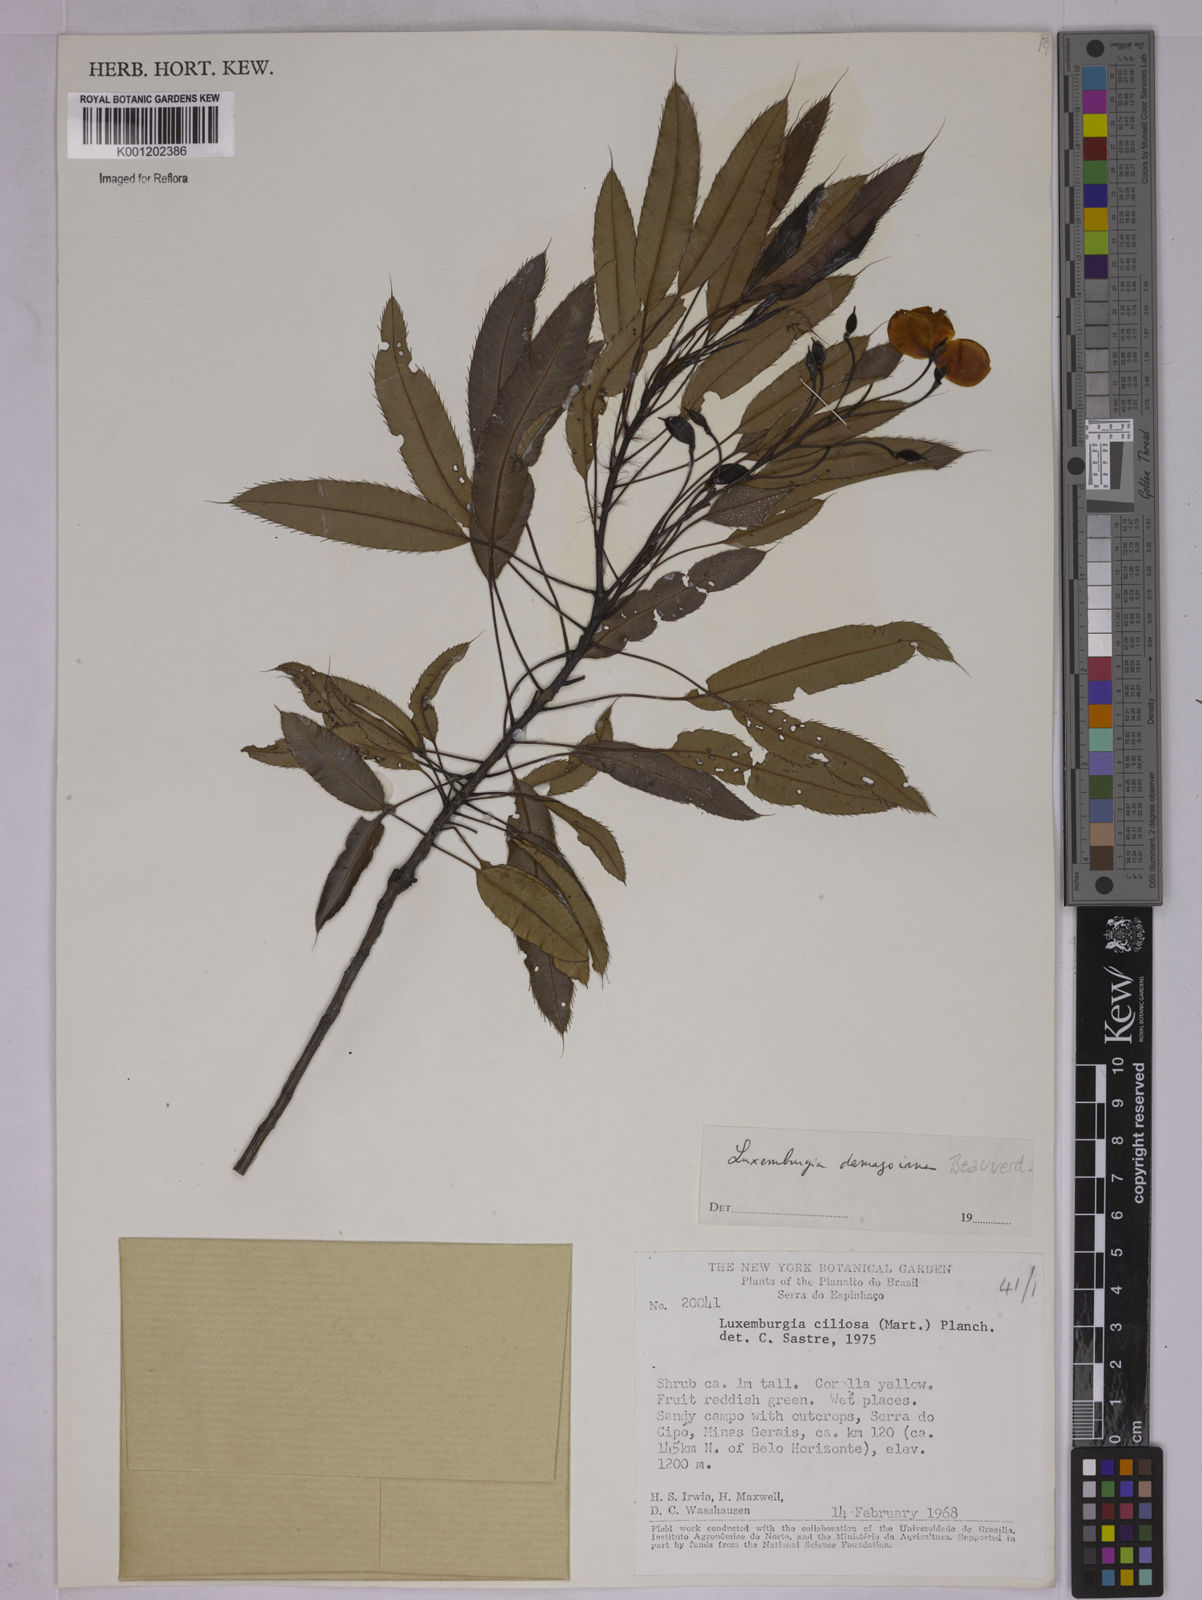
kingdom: Plantae
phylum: Tracheophyta
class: Magnoliopsida
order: Malpighiales
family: Ochnaceae
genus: Luxemburgia
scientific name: Luxemburgia damazioana
